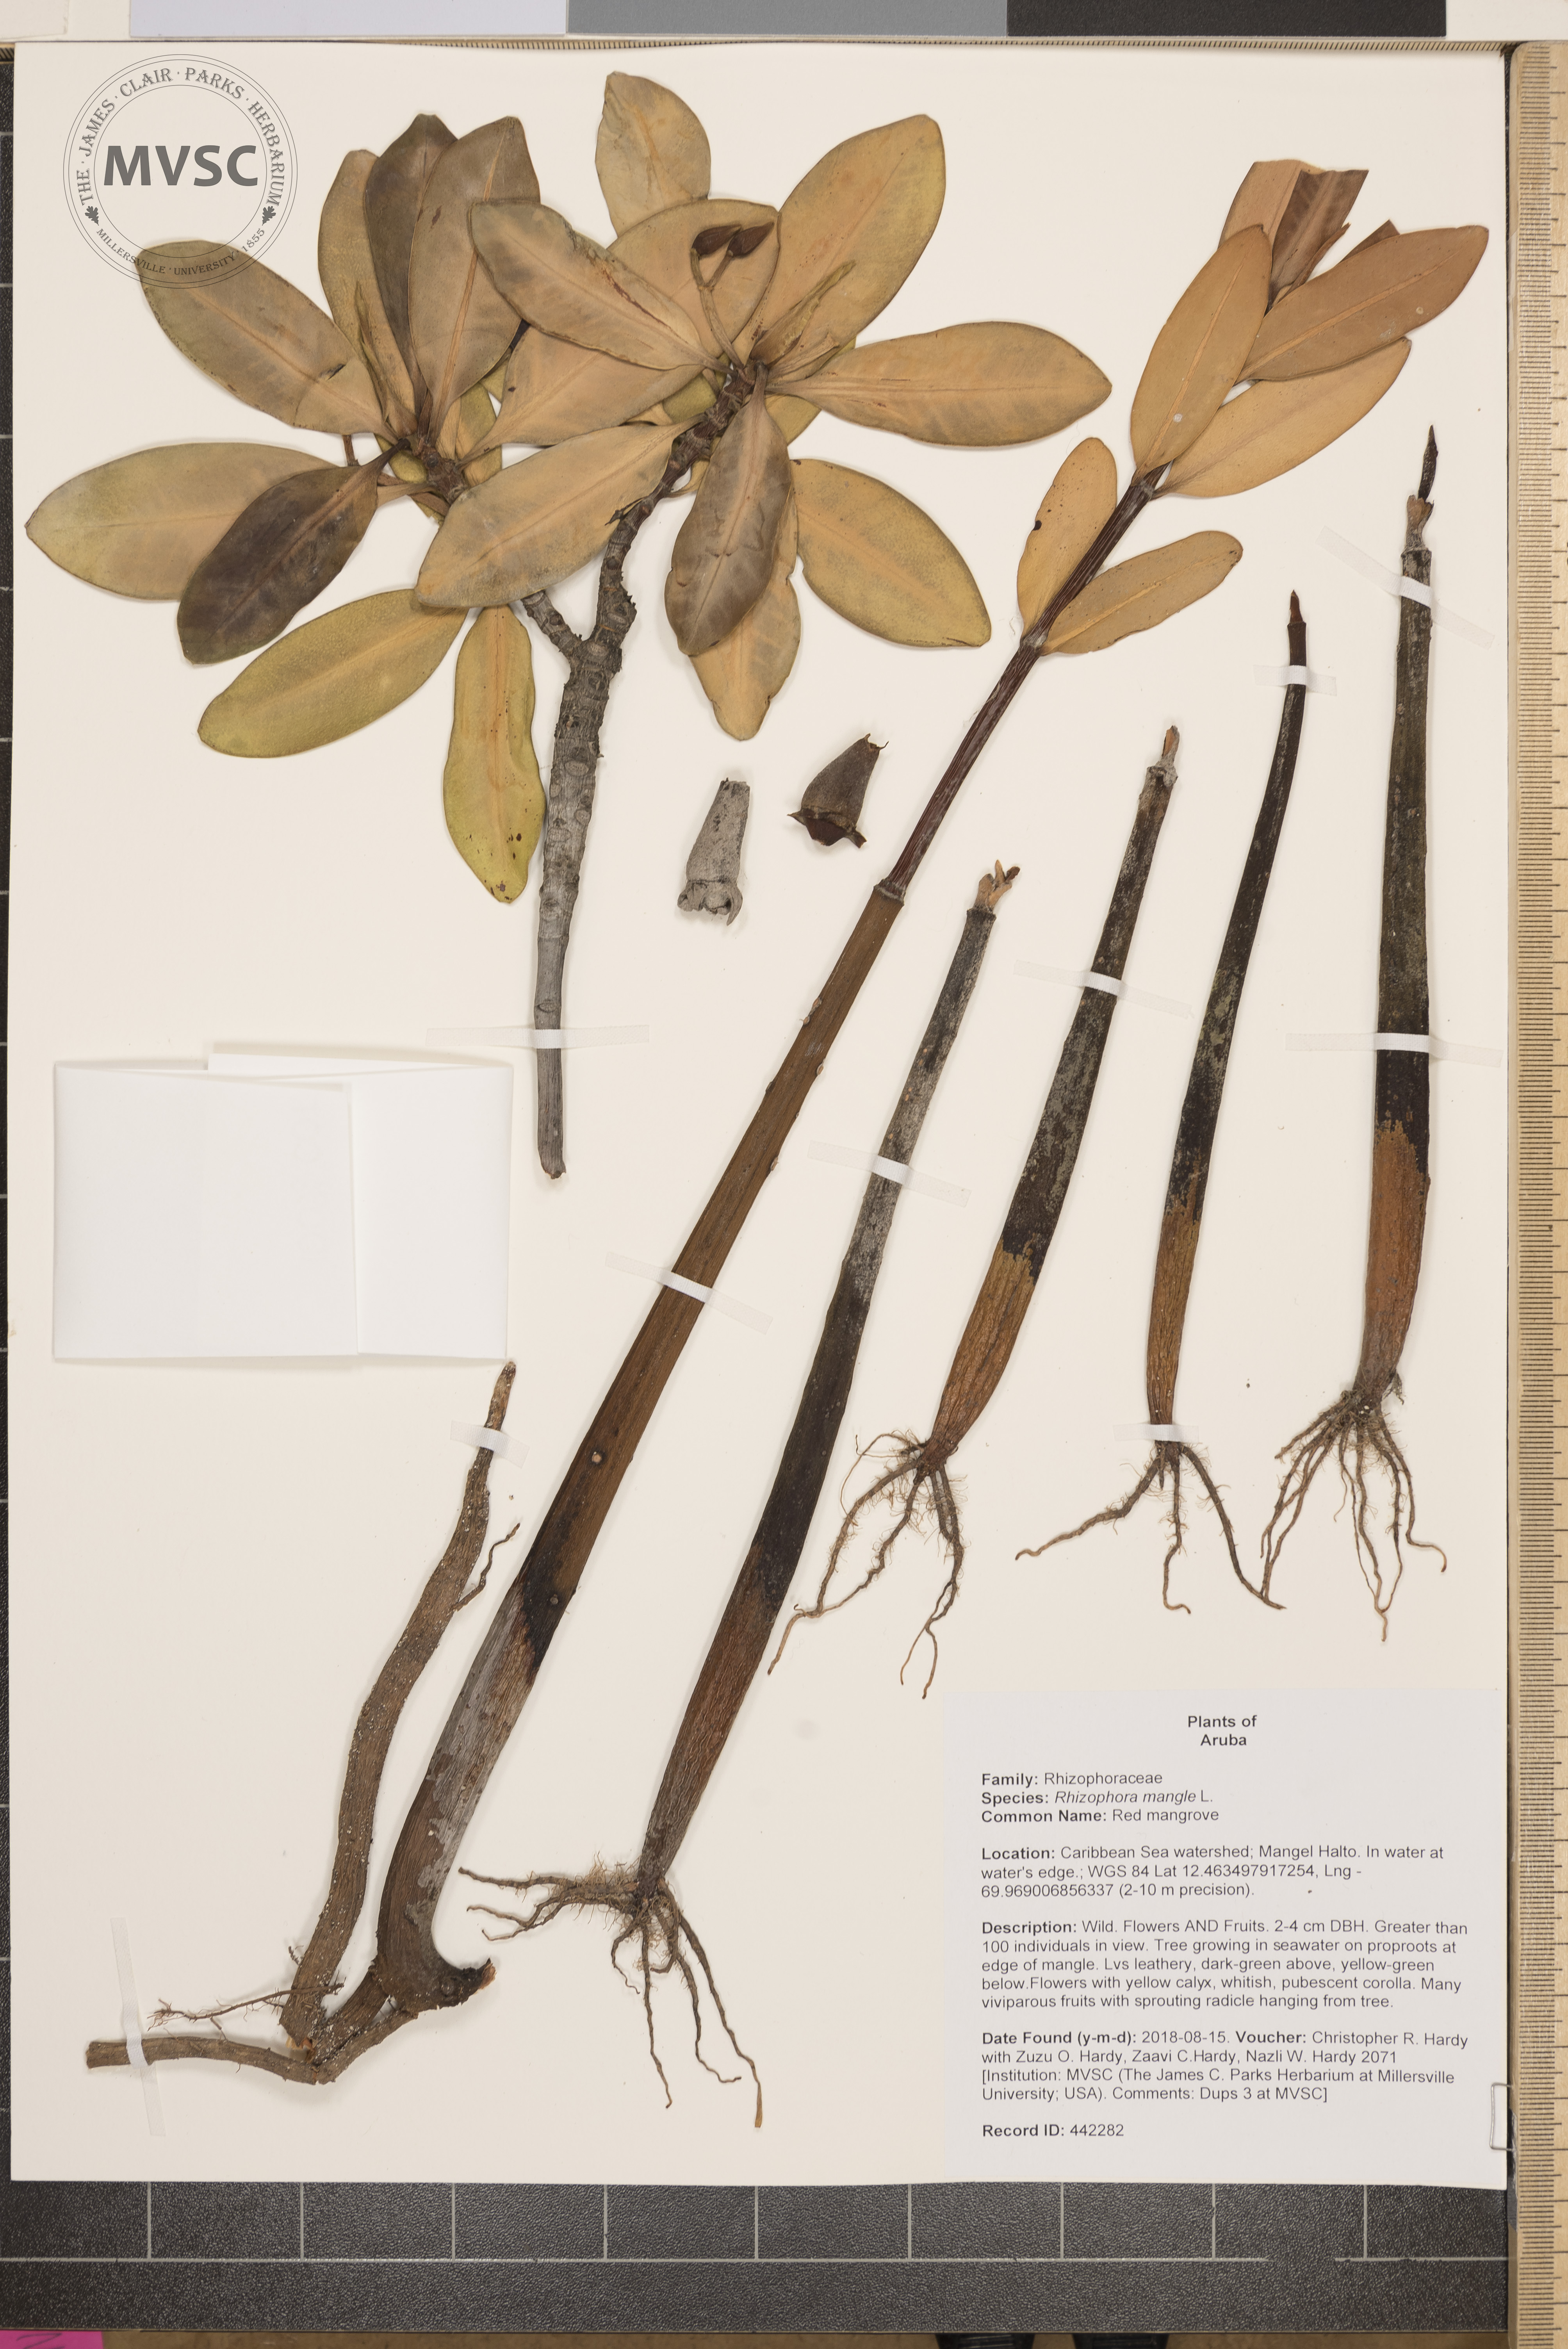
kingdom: Plantae
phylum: Tracheophyta
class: Magnoliopsida
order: Malpighiales
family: Rhizophoraceae
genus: Rhizophora
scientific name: Rhizophora mangle
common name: Red mangrove
